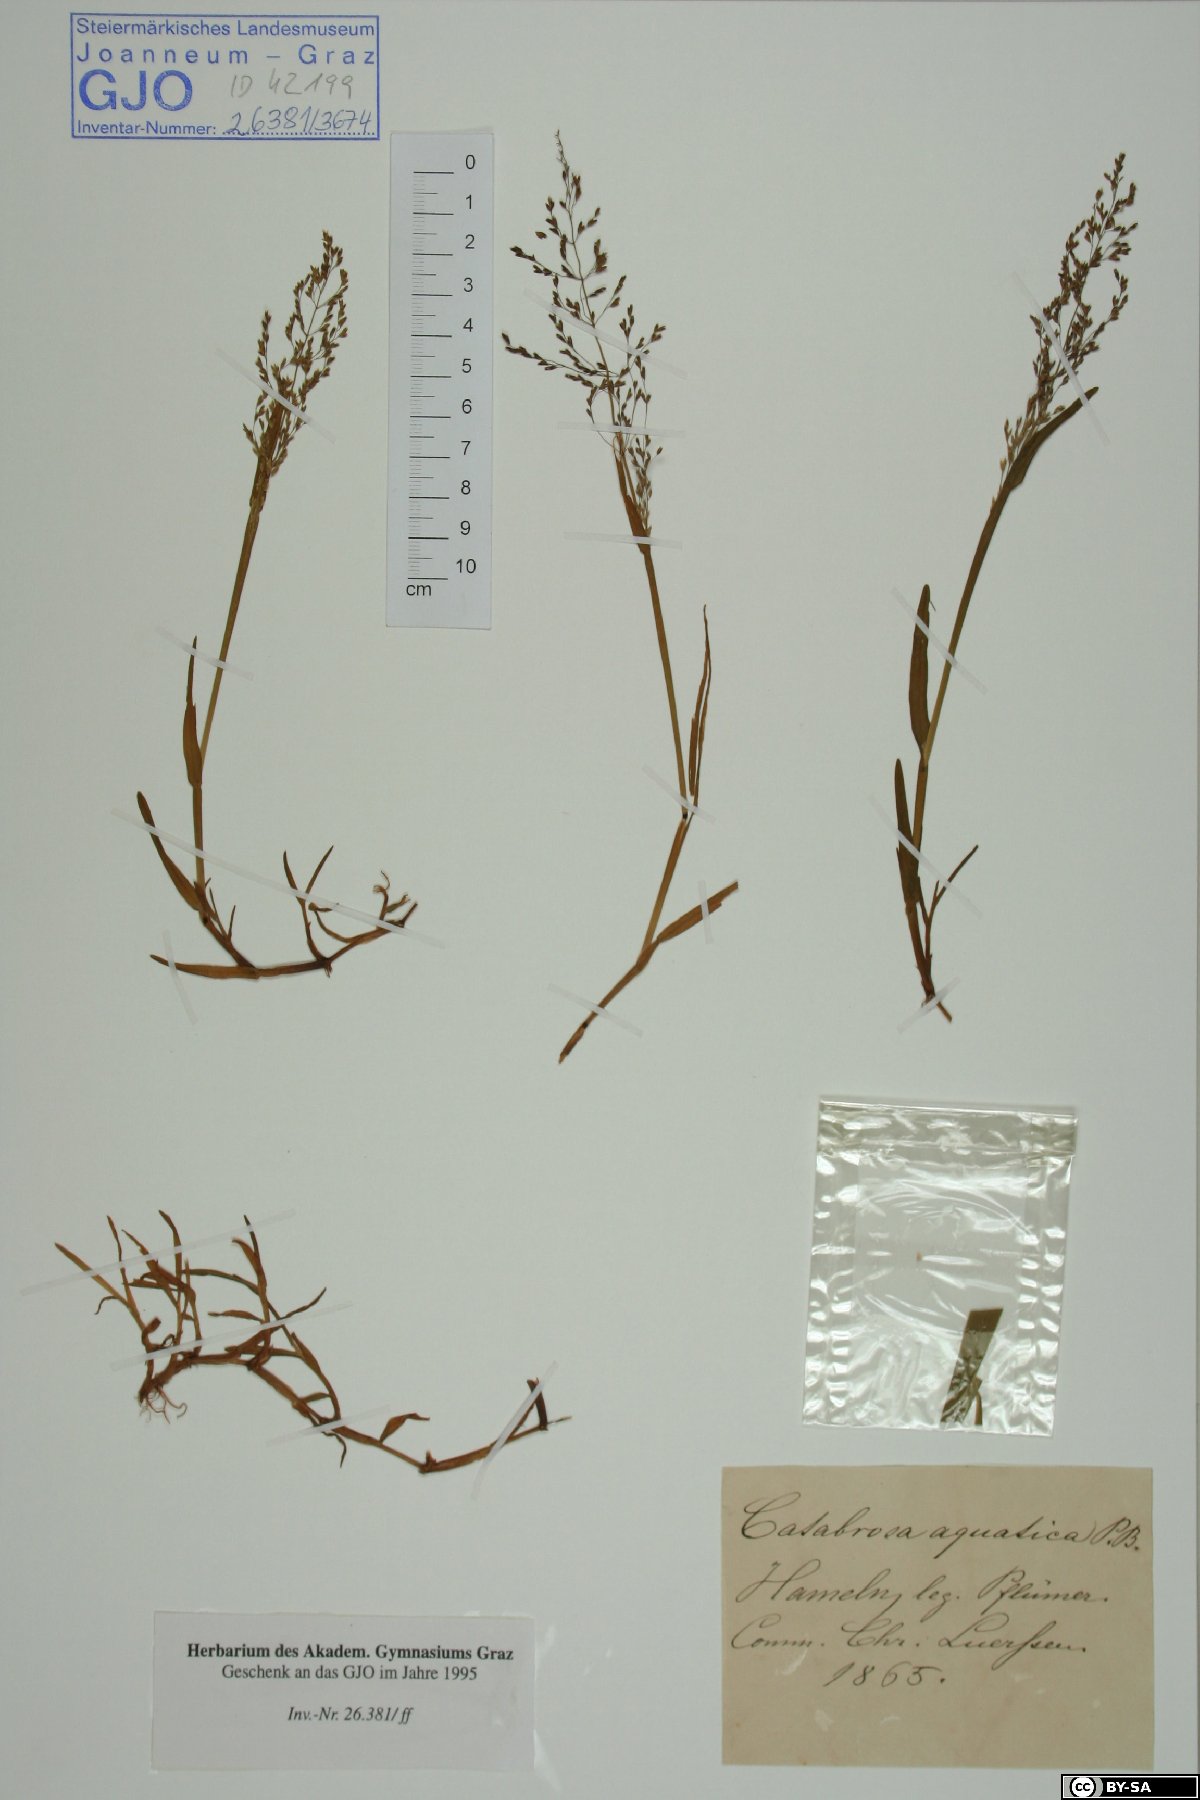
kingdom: Plantae
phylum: Tracheophyta
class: Liliopsida
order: Poales
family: Poaceae
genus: Catabrosa
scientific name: Catabrosa aquatica
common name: Whorl-grass
